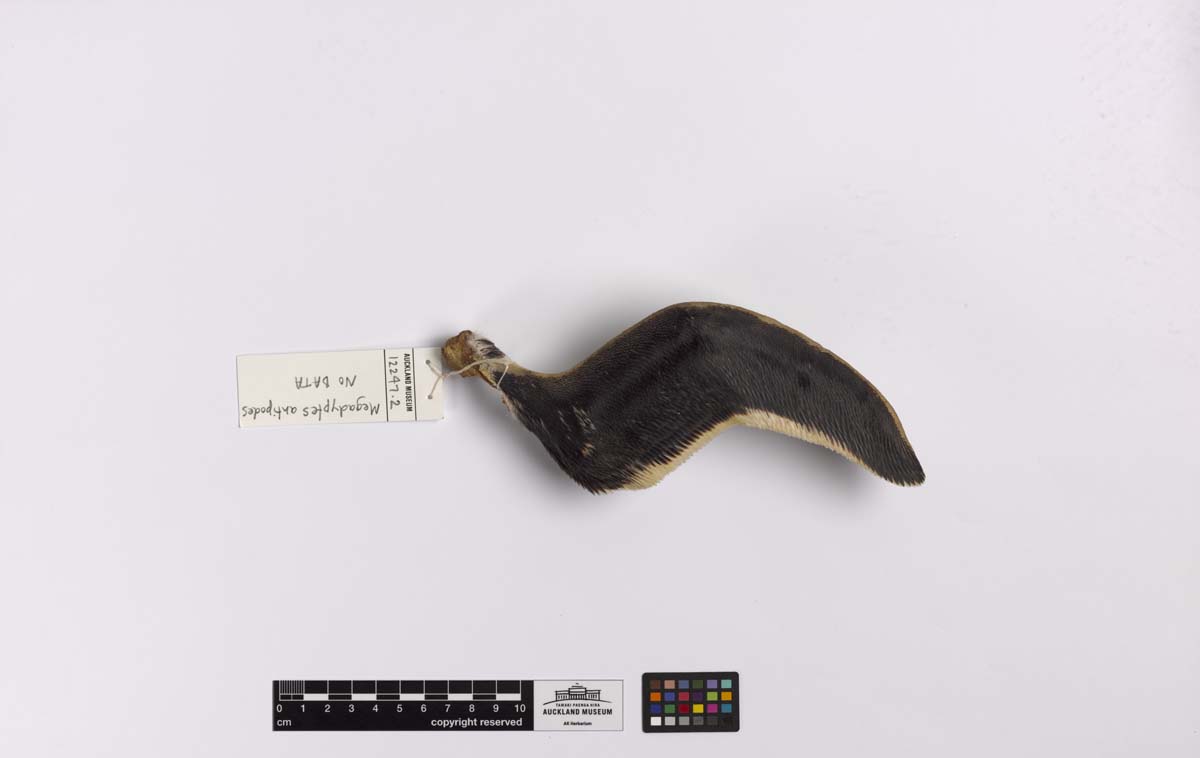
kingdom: Animalia
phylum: Chordata
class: Aves
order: Sphenisciformes
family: Spheniscidae
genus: Megadyptes
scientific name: Megadyptes antipodes
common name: Yellow-eyed penguin
